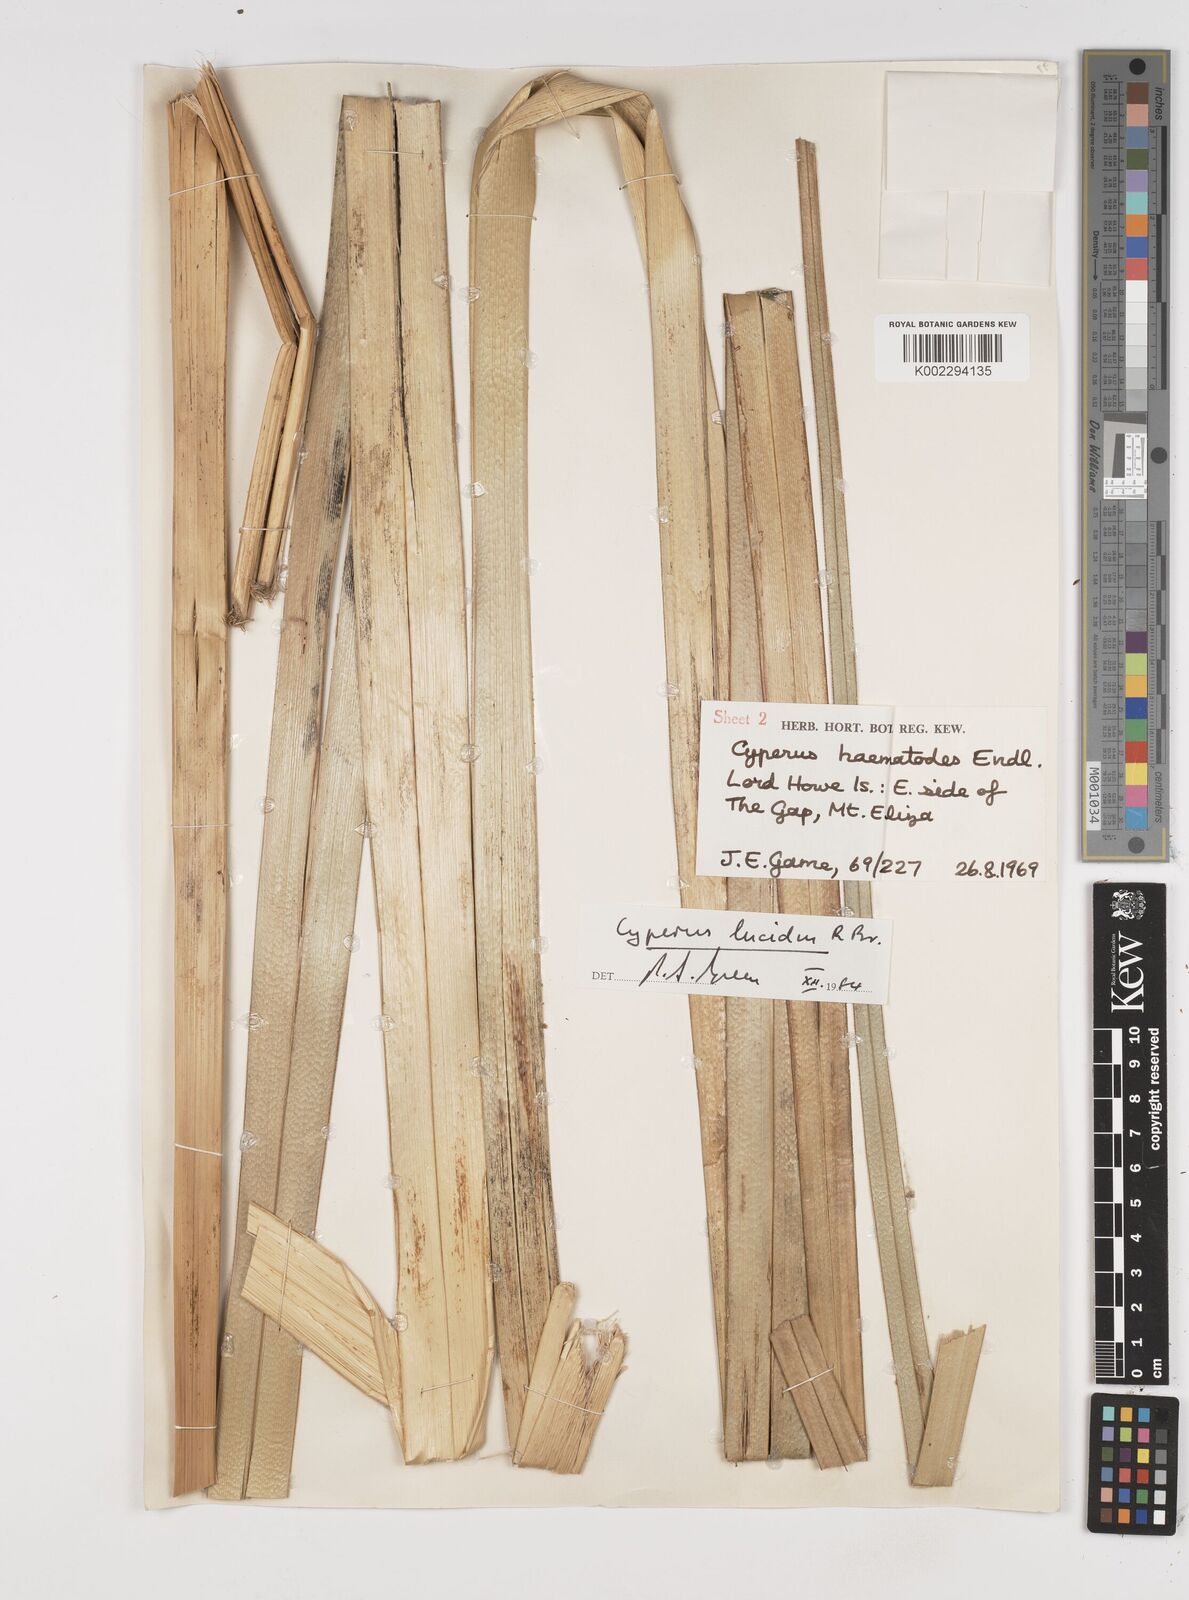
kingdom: Plantae
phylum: Tracheophyta
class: Liliopsida
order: Poales
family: Cyperaceae
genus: Cyperus
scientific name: Cyperus lucidus
